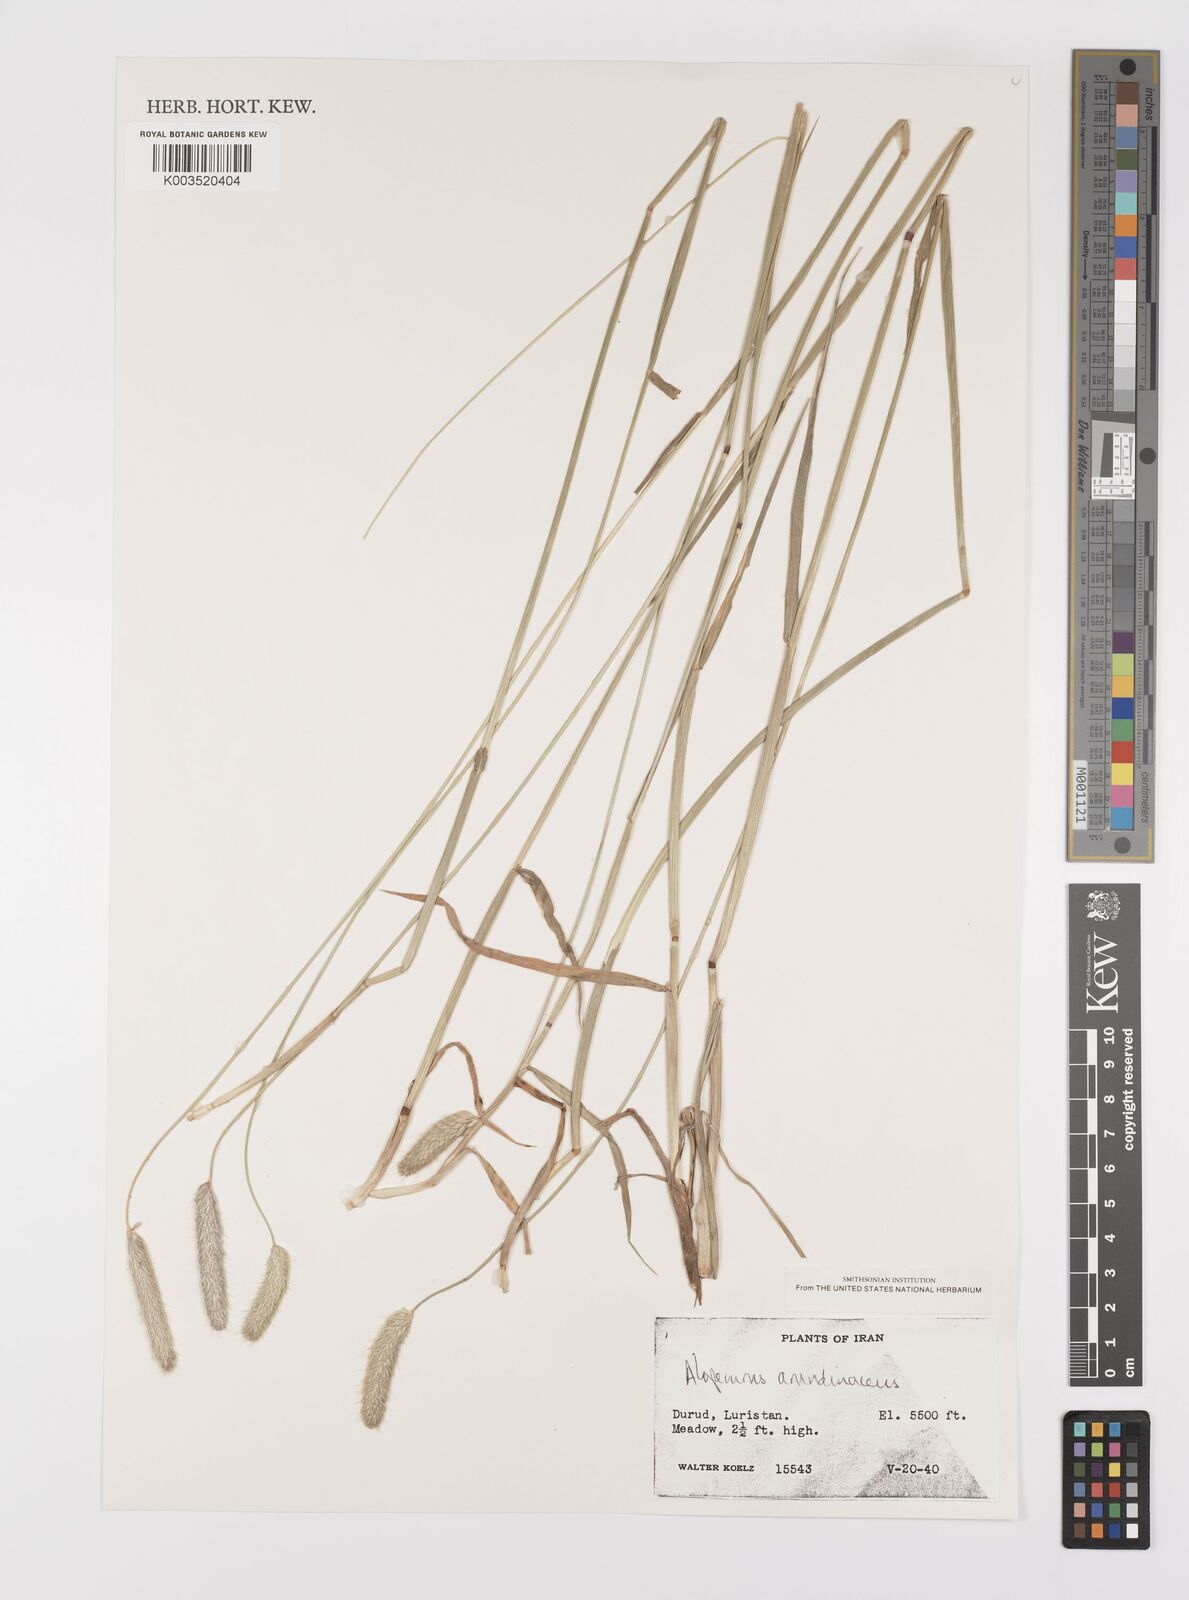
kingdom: Plantae
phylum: Tracheophyta
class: Liliopsida
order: Poales
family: Poaceae
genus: Alopecurus
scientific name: Alopecurus arundinaceus
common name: Creeping meadow foxtail
